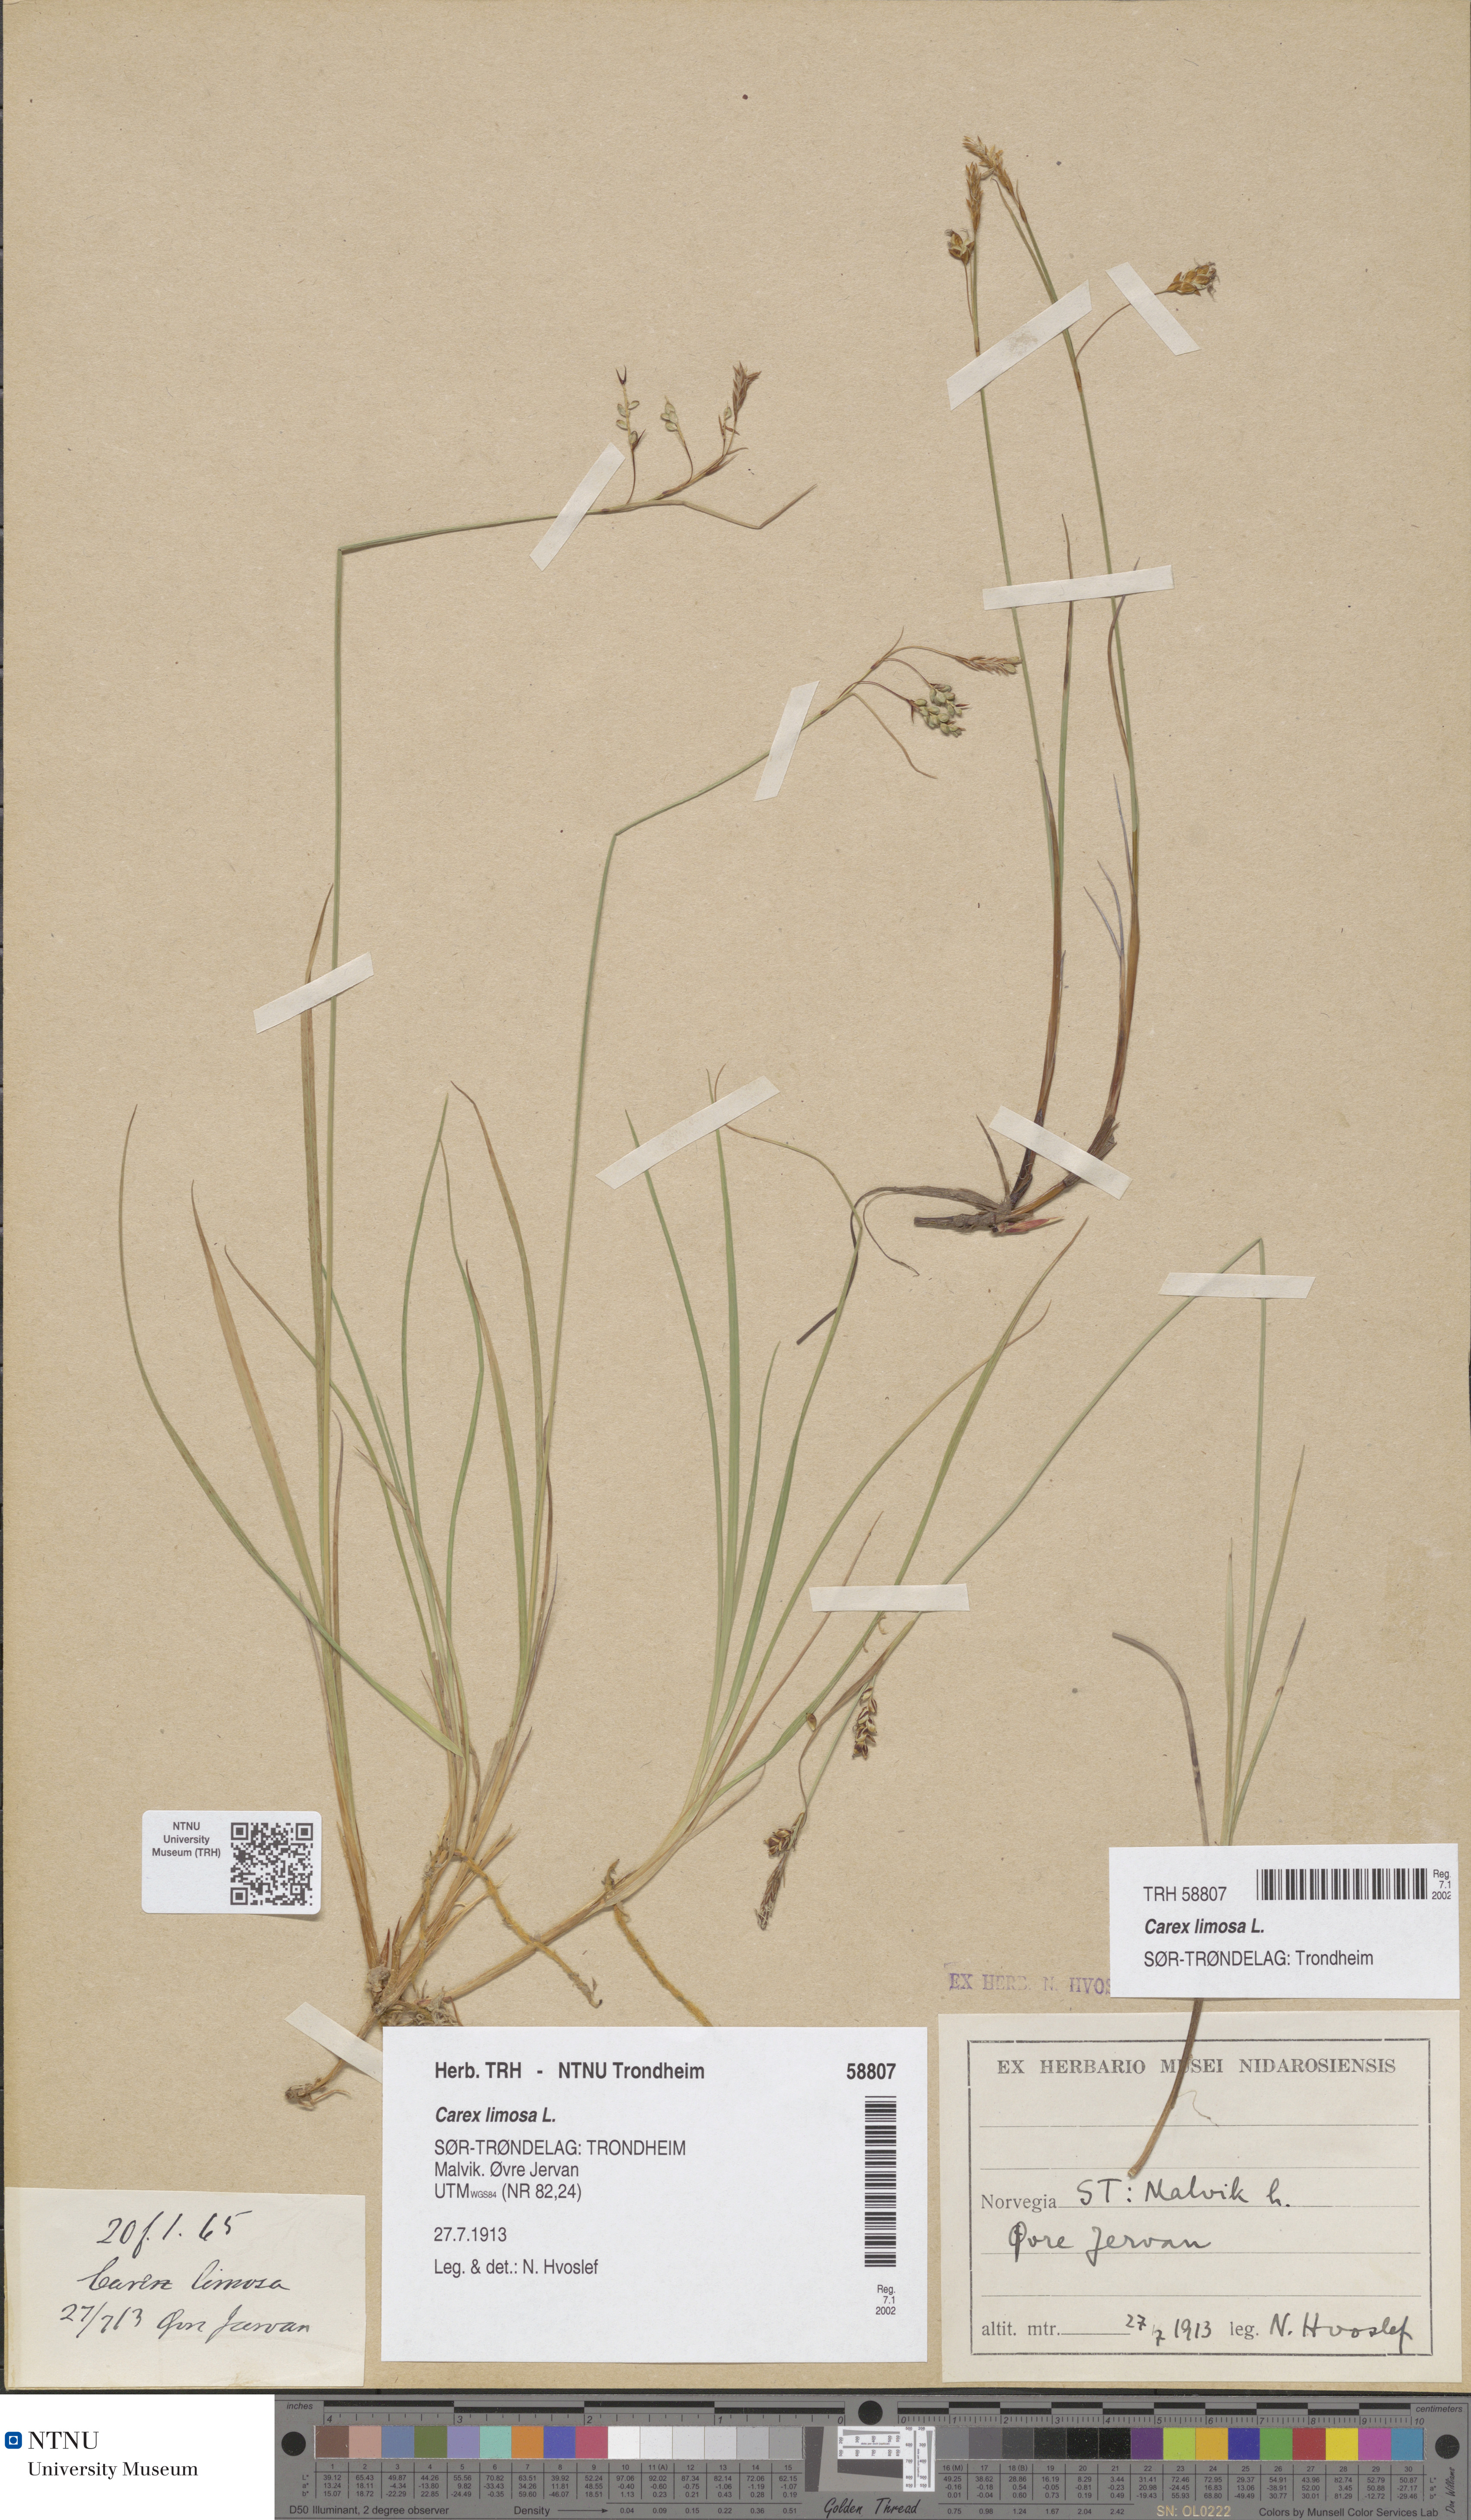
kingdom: Plantae
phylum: Tracheophyta
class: Liliopsida
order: Poales
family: Cyperaceae
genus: Carex
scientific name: Carex limosa
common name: Bog sedge
